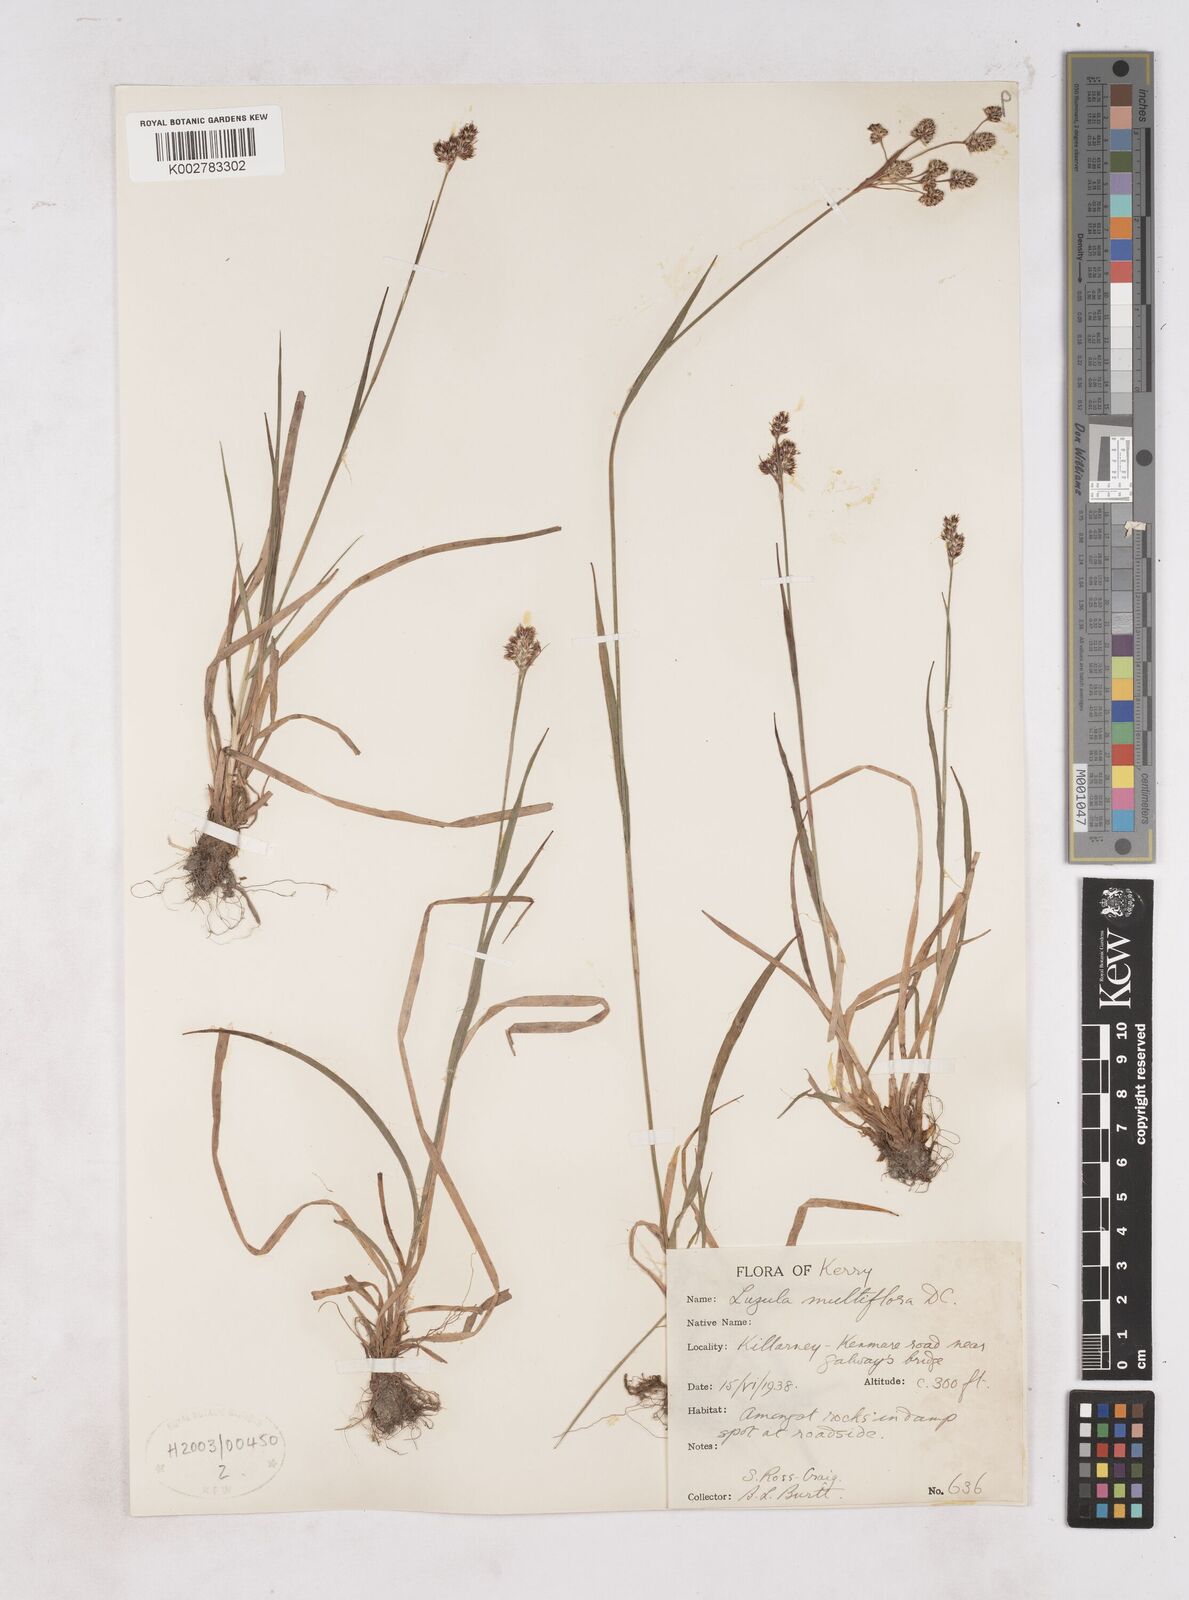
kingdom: Plantae
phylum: Tracheophyta
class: Liliopsida
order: Poales
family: Juncaceae
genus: Luzula
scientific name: Luzula multiflora
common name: Heath wood-rush
